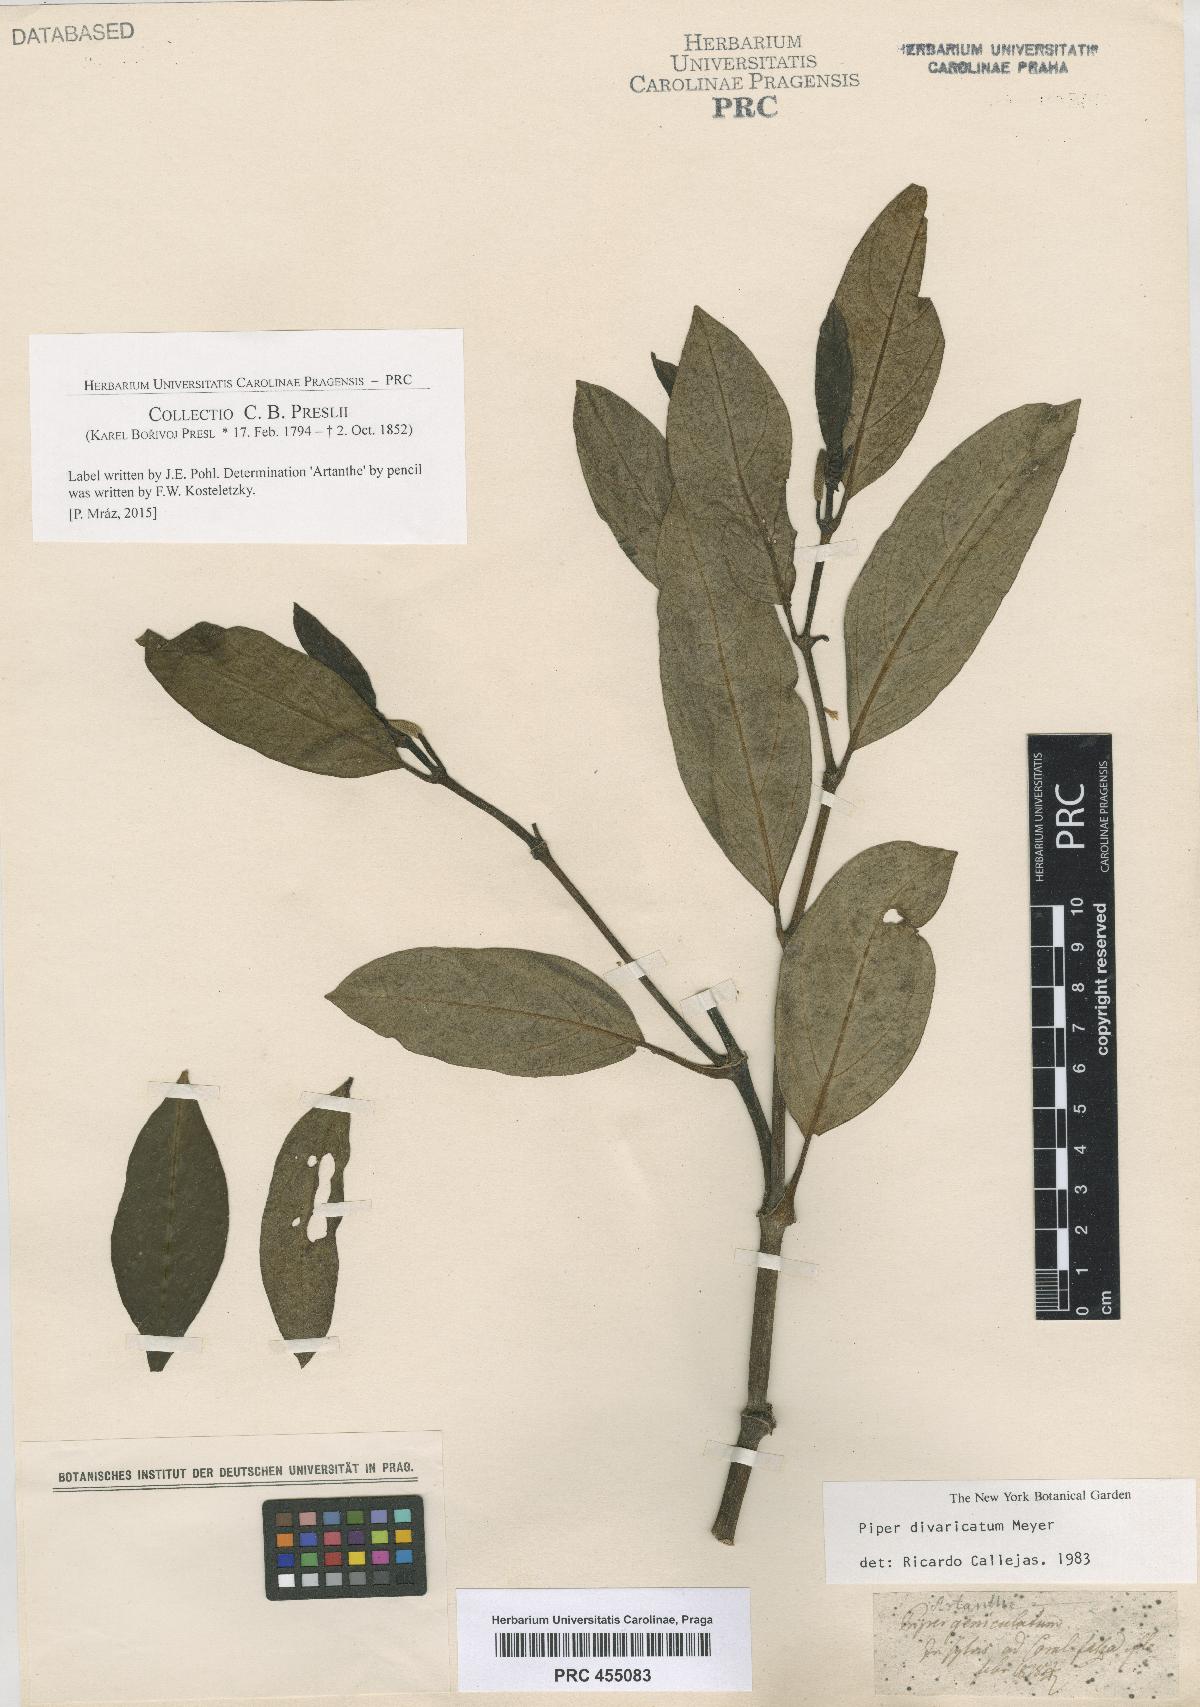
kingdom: Plantae
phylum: Tracheophyta
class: Magnoliopsida
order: Piperales
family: Piperaceae
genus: Piper
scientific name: Piper divaricatum
